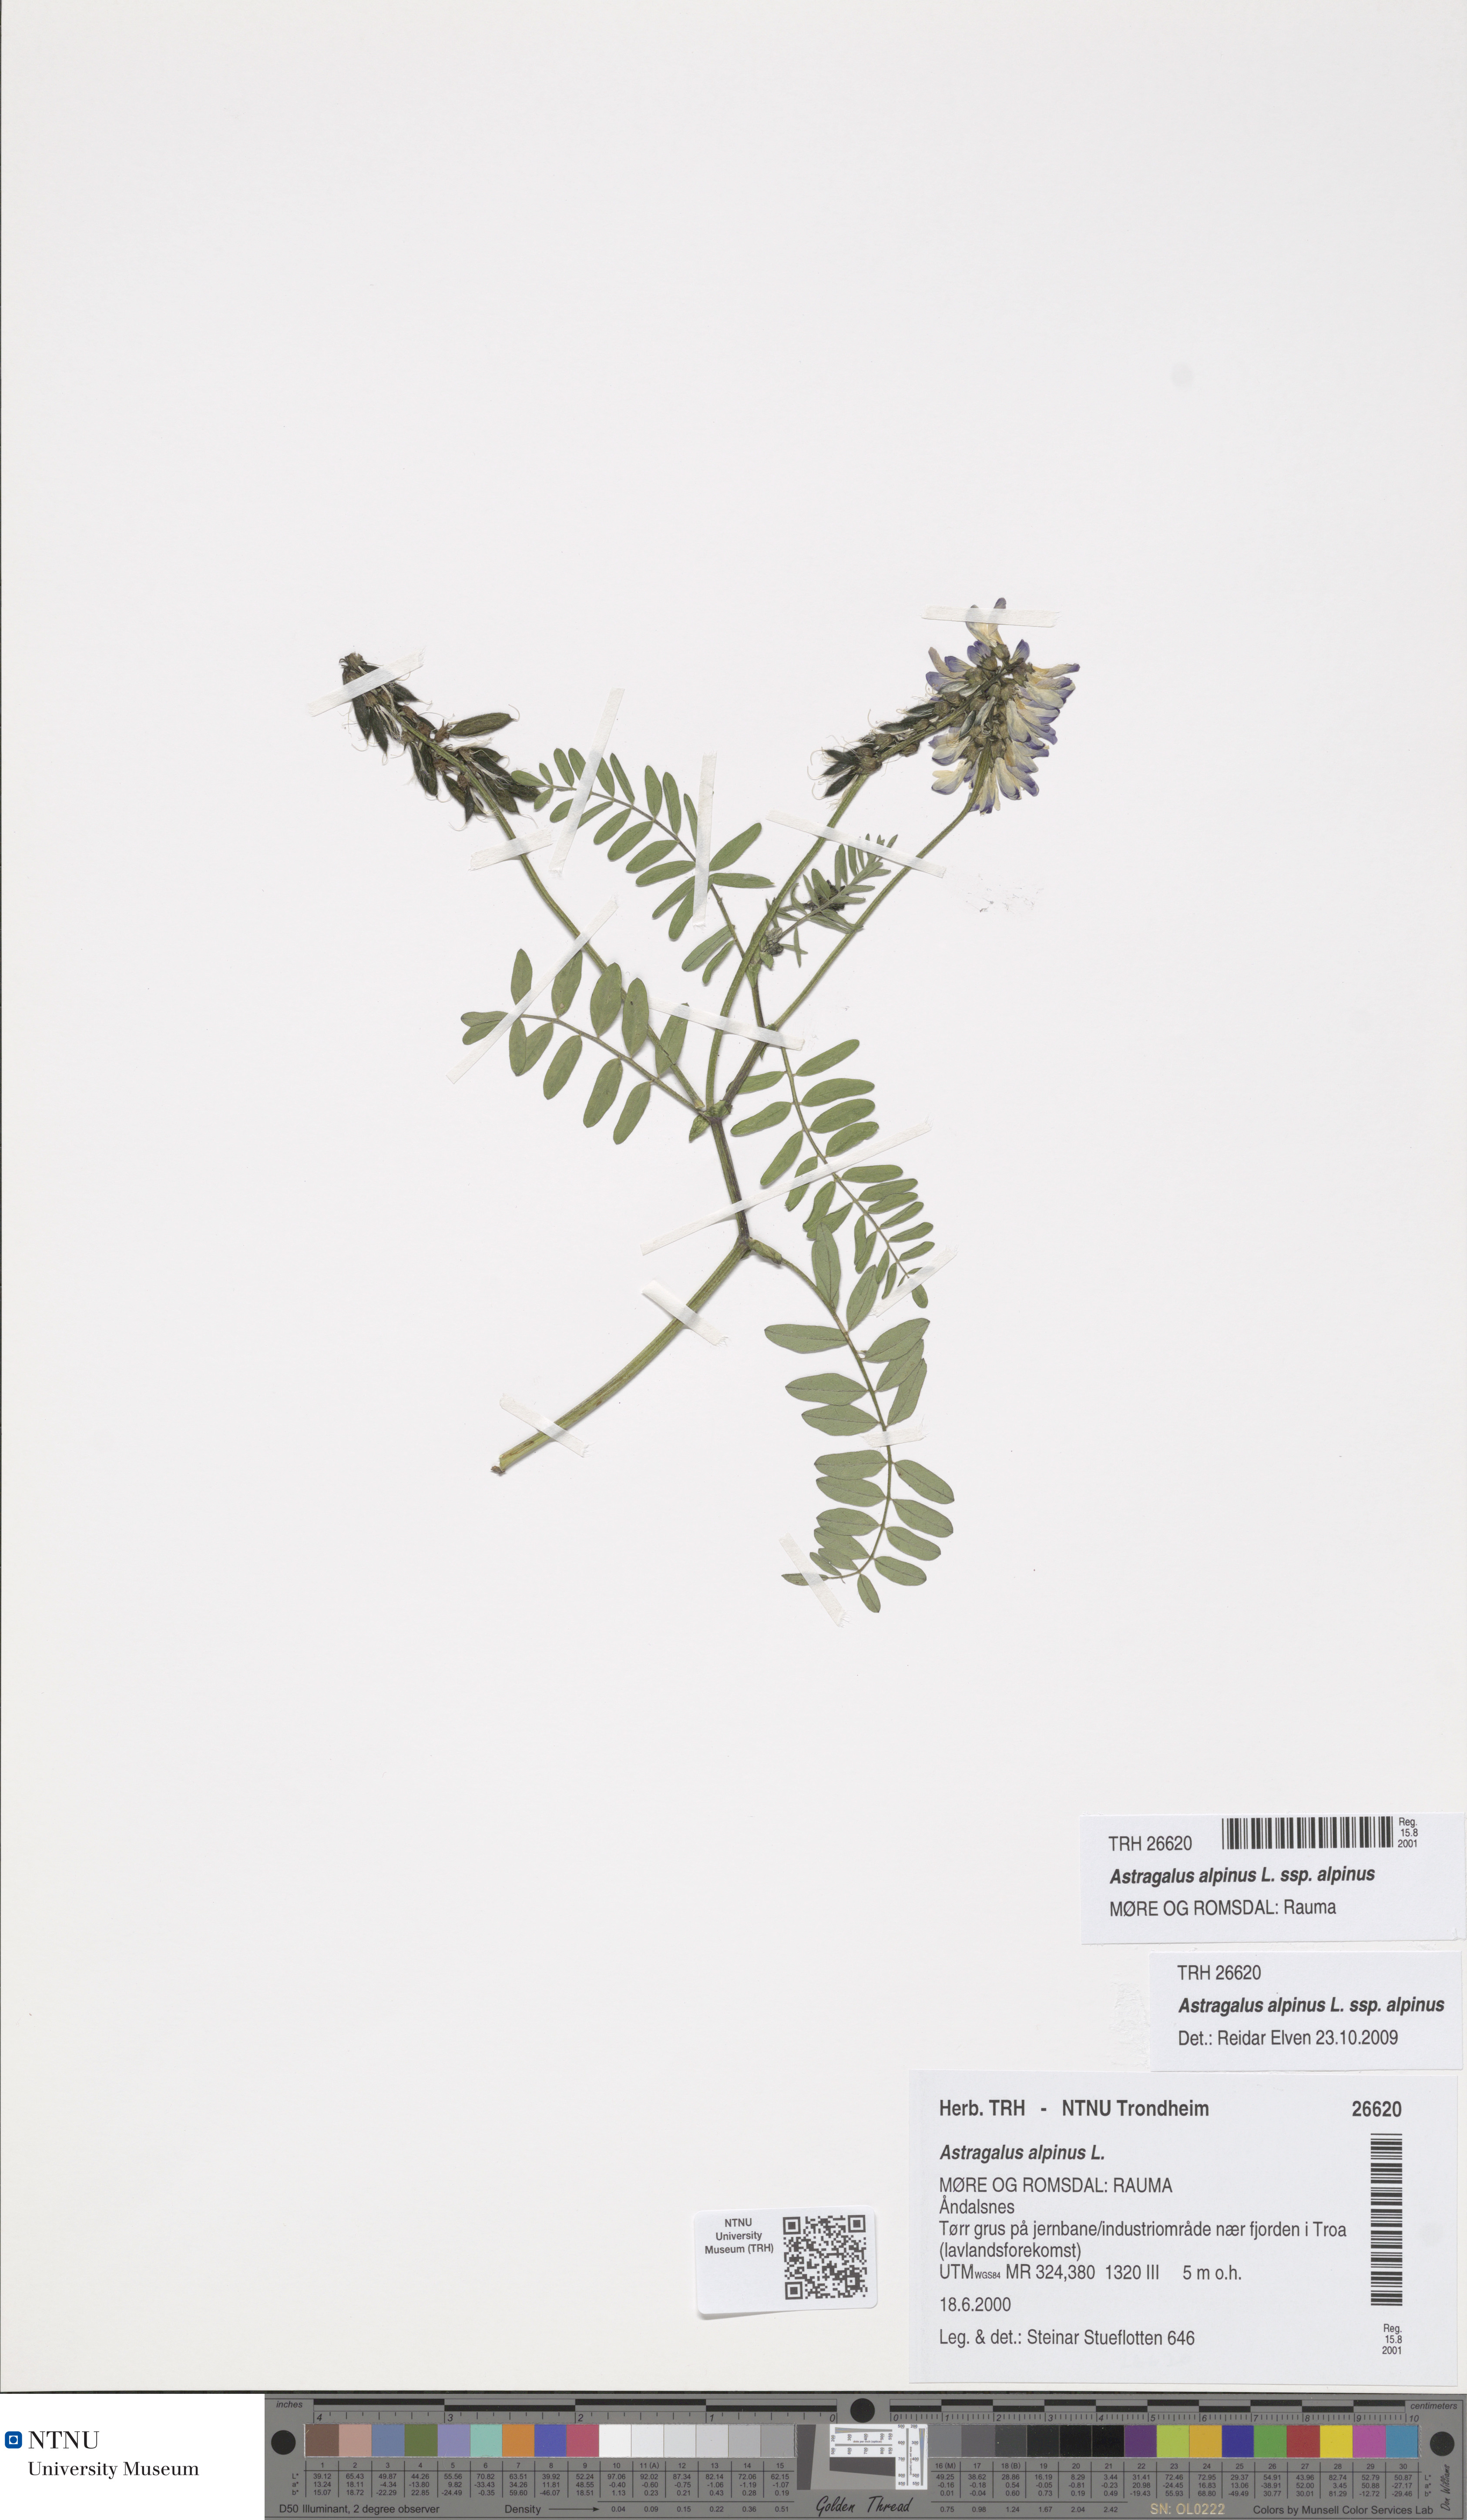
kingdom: Plantae
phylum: Tracheophyta
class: Magnoliopsida
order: Fabales
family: Fabaceae
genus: Astragalus
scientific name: Astragalus alpinus
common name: Alpine milk-vetch
